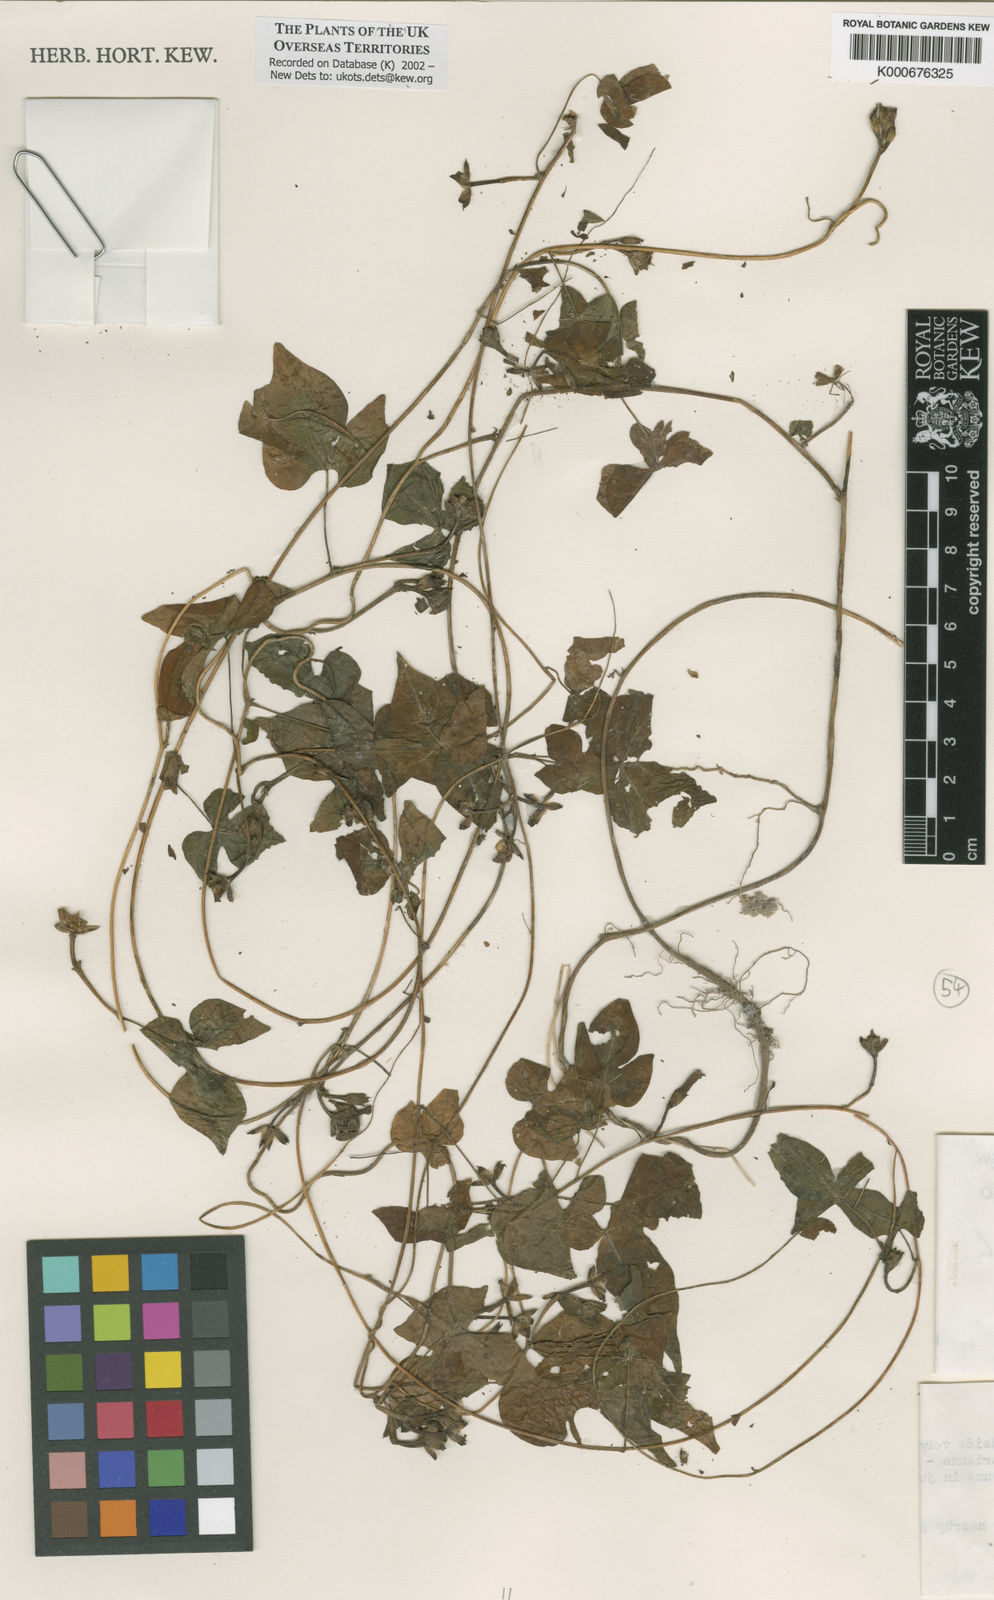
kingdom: Plantae
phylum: Tracheophyta
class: Magnoliopsida
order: Solanales
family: Convolvulaceae
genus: Ipomoea
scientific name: Ipomoea triloba
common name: Little-bell
